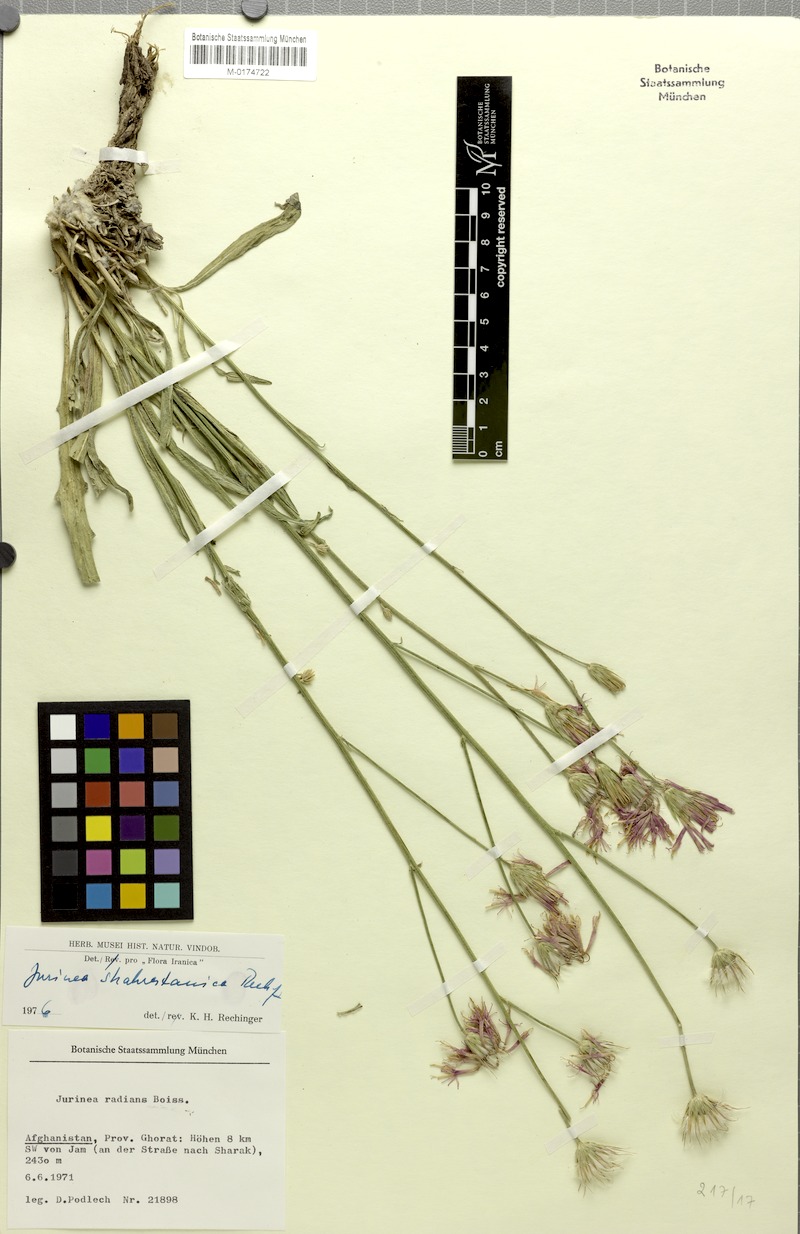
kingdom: Plantae
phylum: Tracheophyta
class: Magnoliopsida
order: Asterales
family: Asteraceae
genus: Jurinea
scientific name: Jurinea shahrestanica
